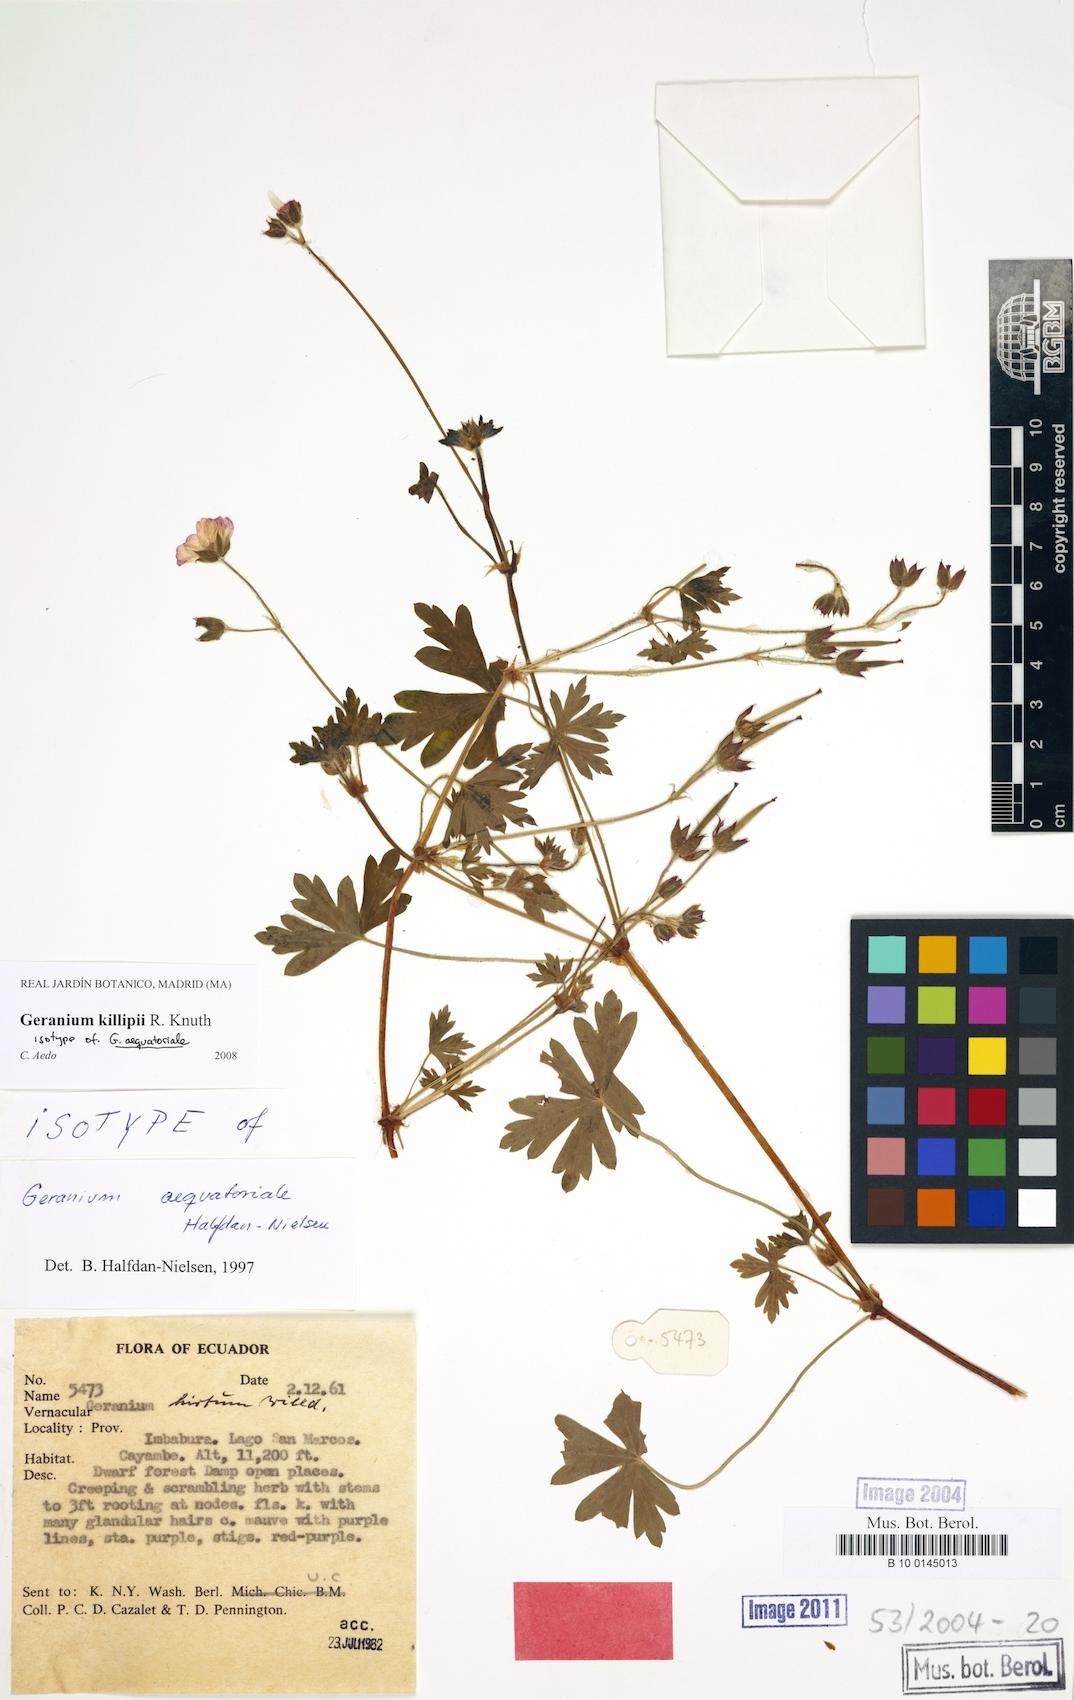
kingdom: Plantae
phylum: Tracheophyta
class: Magnoliopsida
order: Geraniales
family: Geraniaceae
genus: Geranium
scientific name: Geranium killipii
